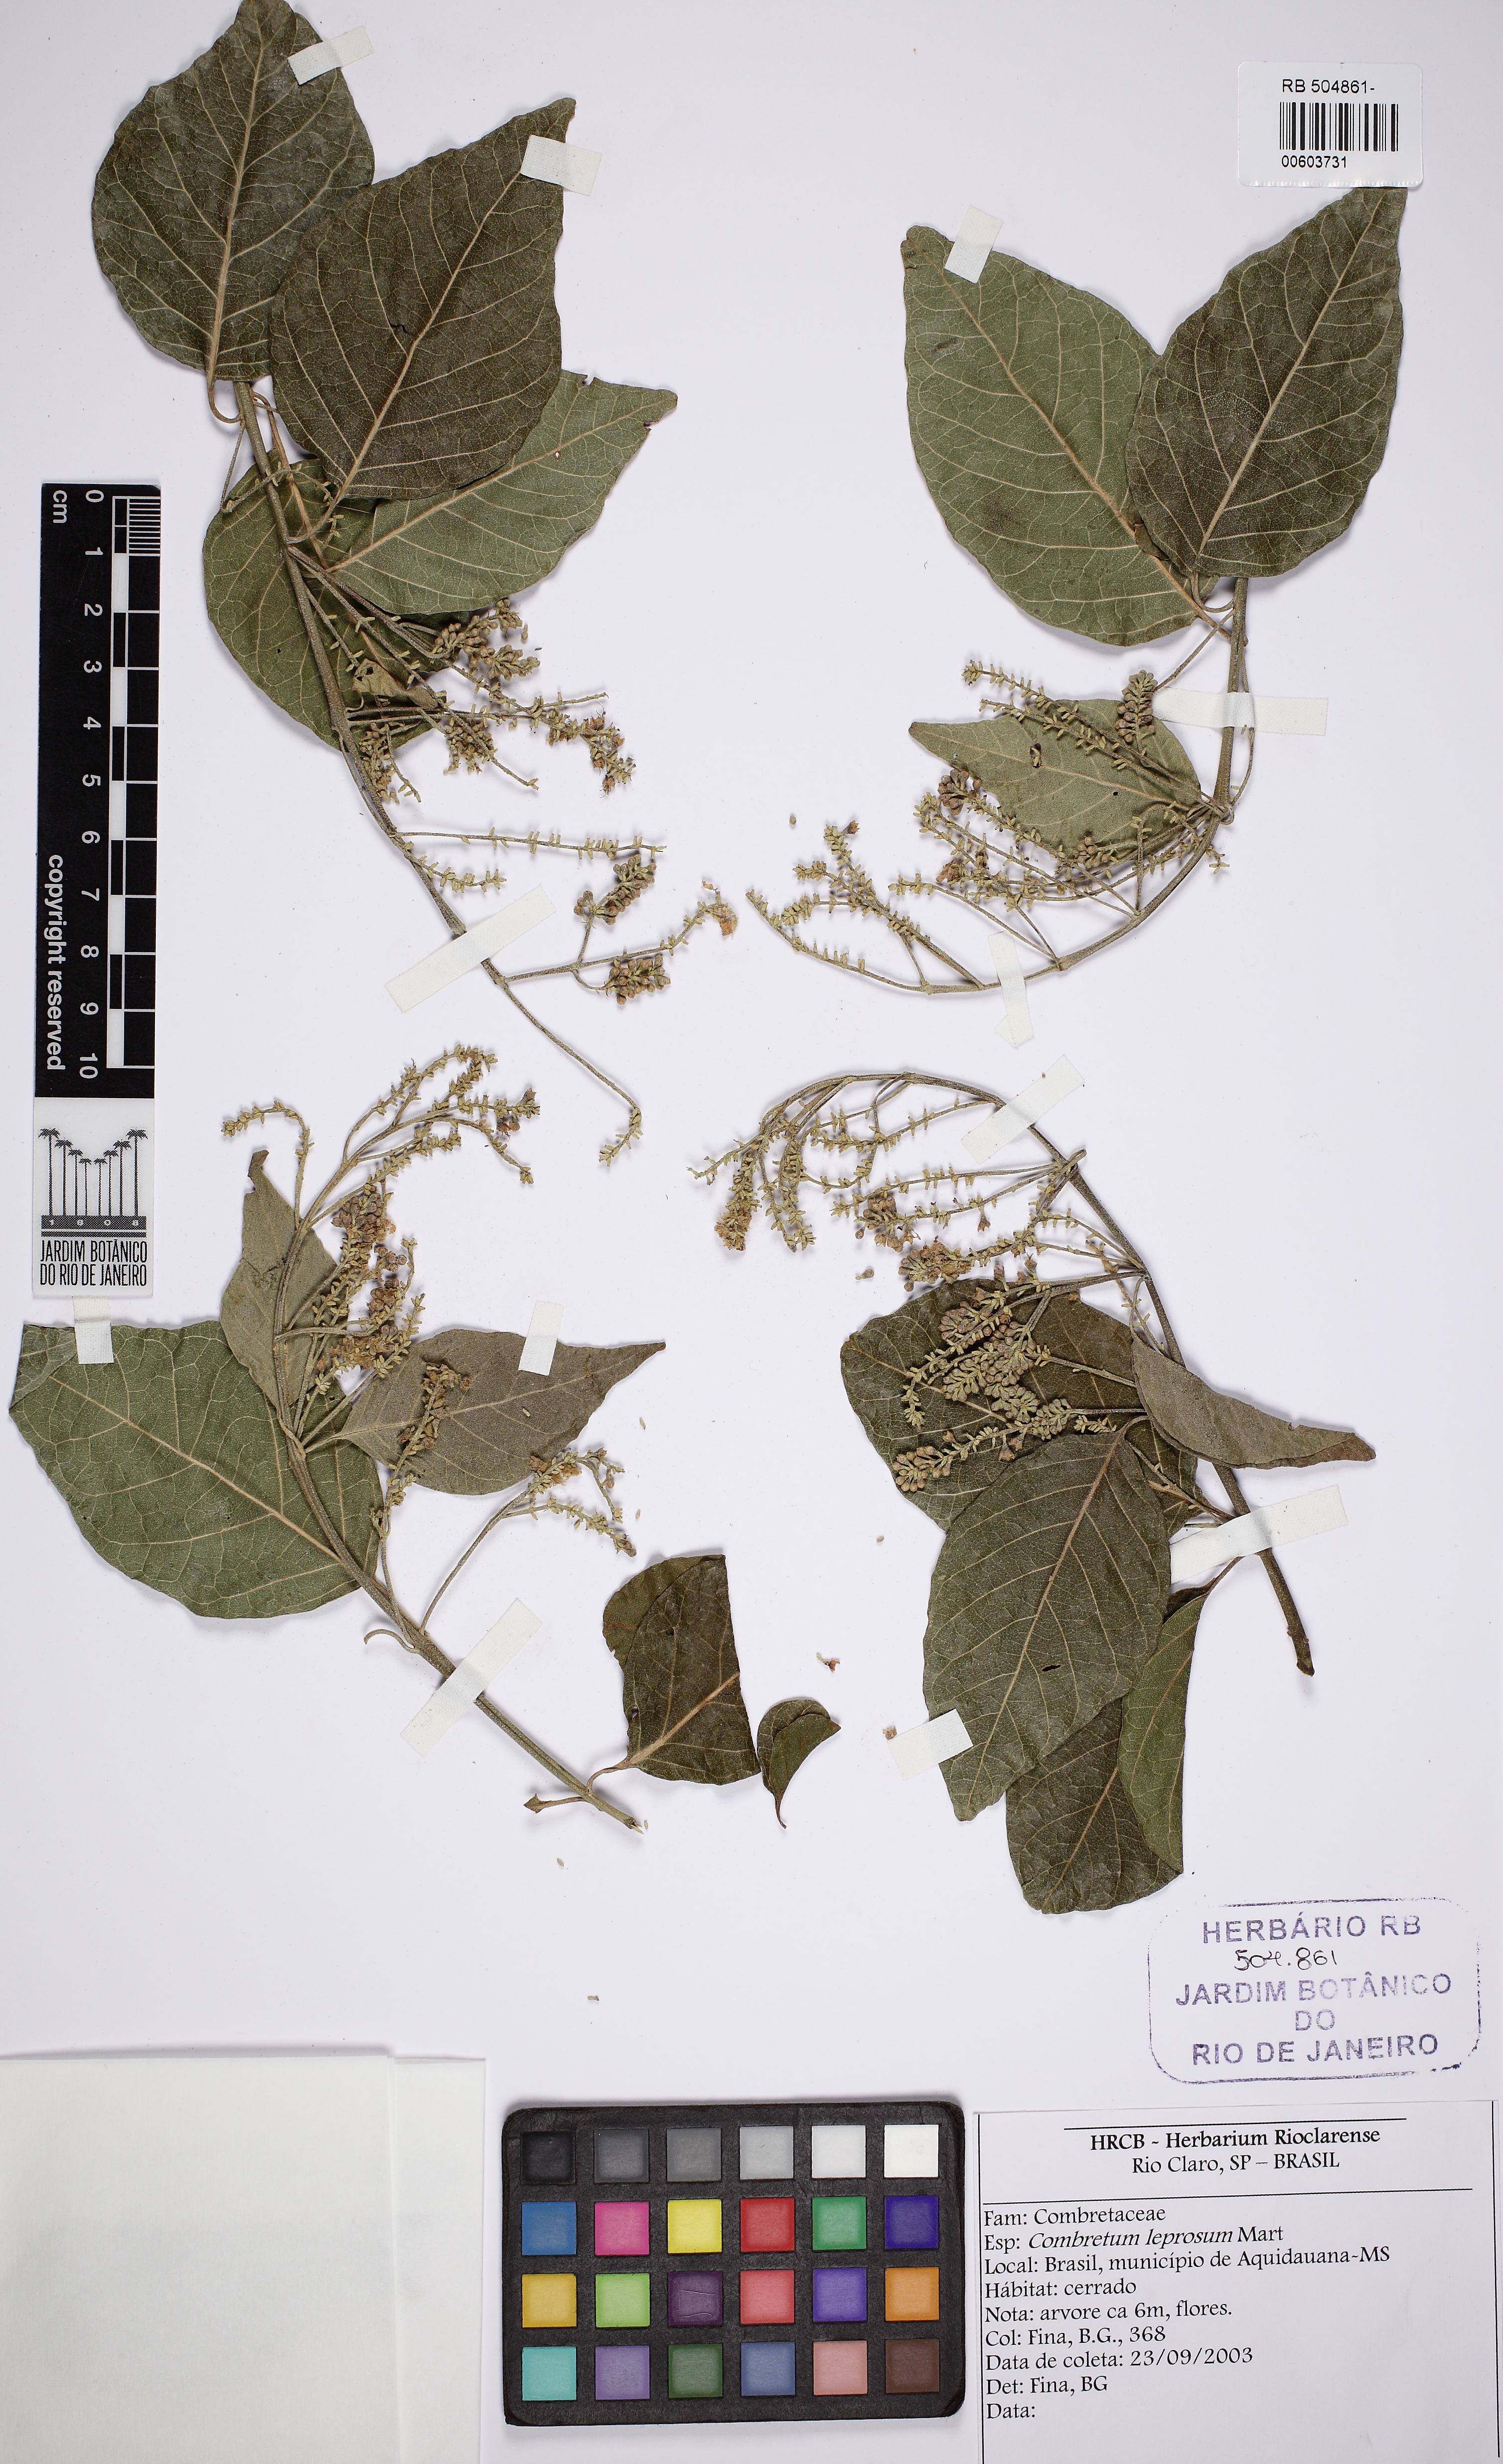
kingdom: Plantae
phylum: Tracheophyta
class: Magnoliopsida
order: Myrtales
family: Combretaceae
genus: Combretum
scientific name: Combretum leprosum
